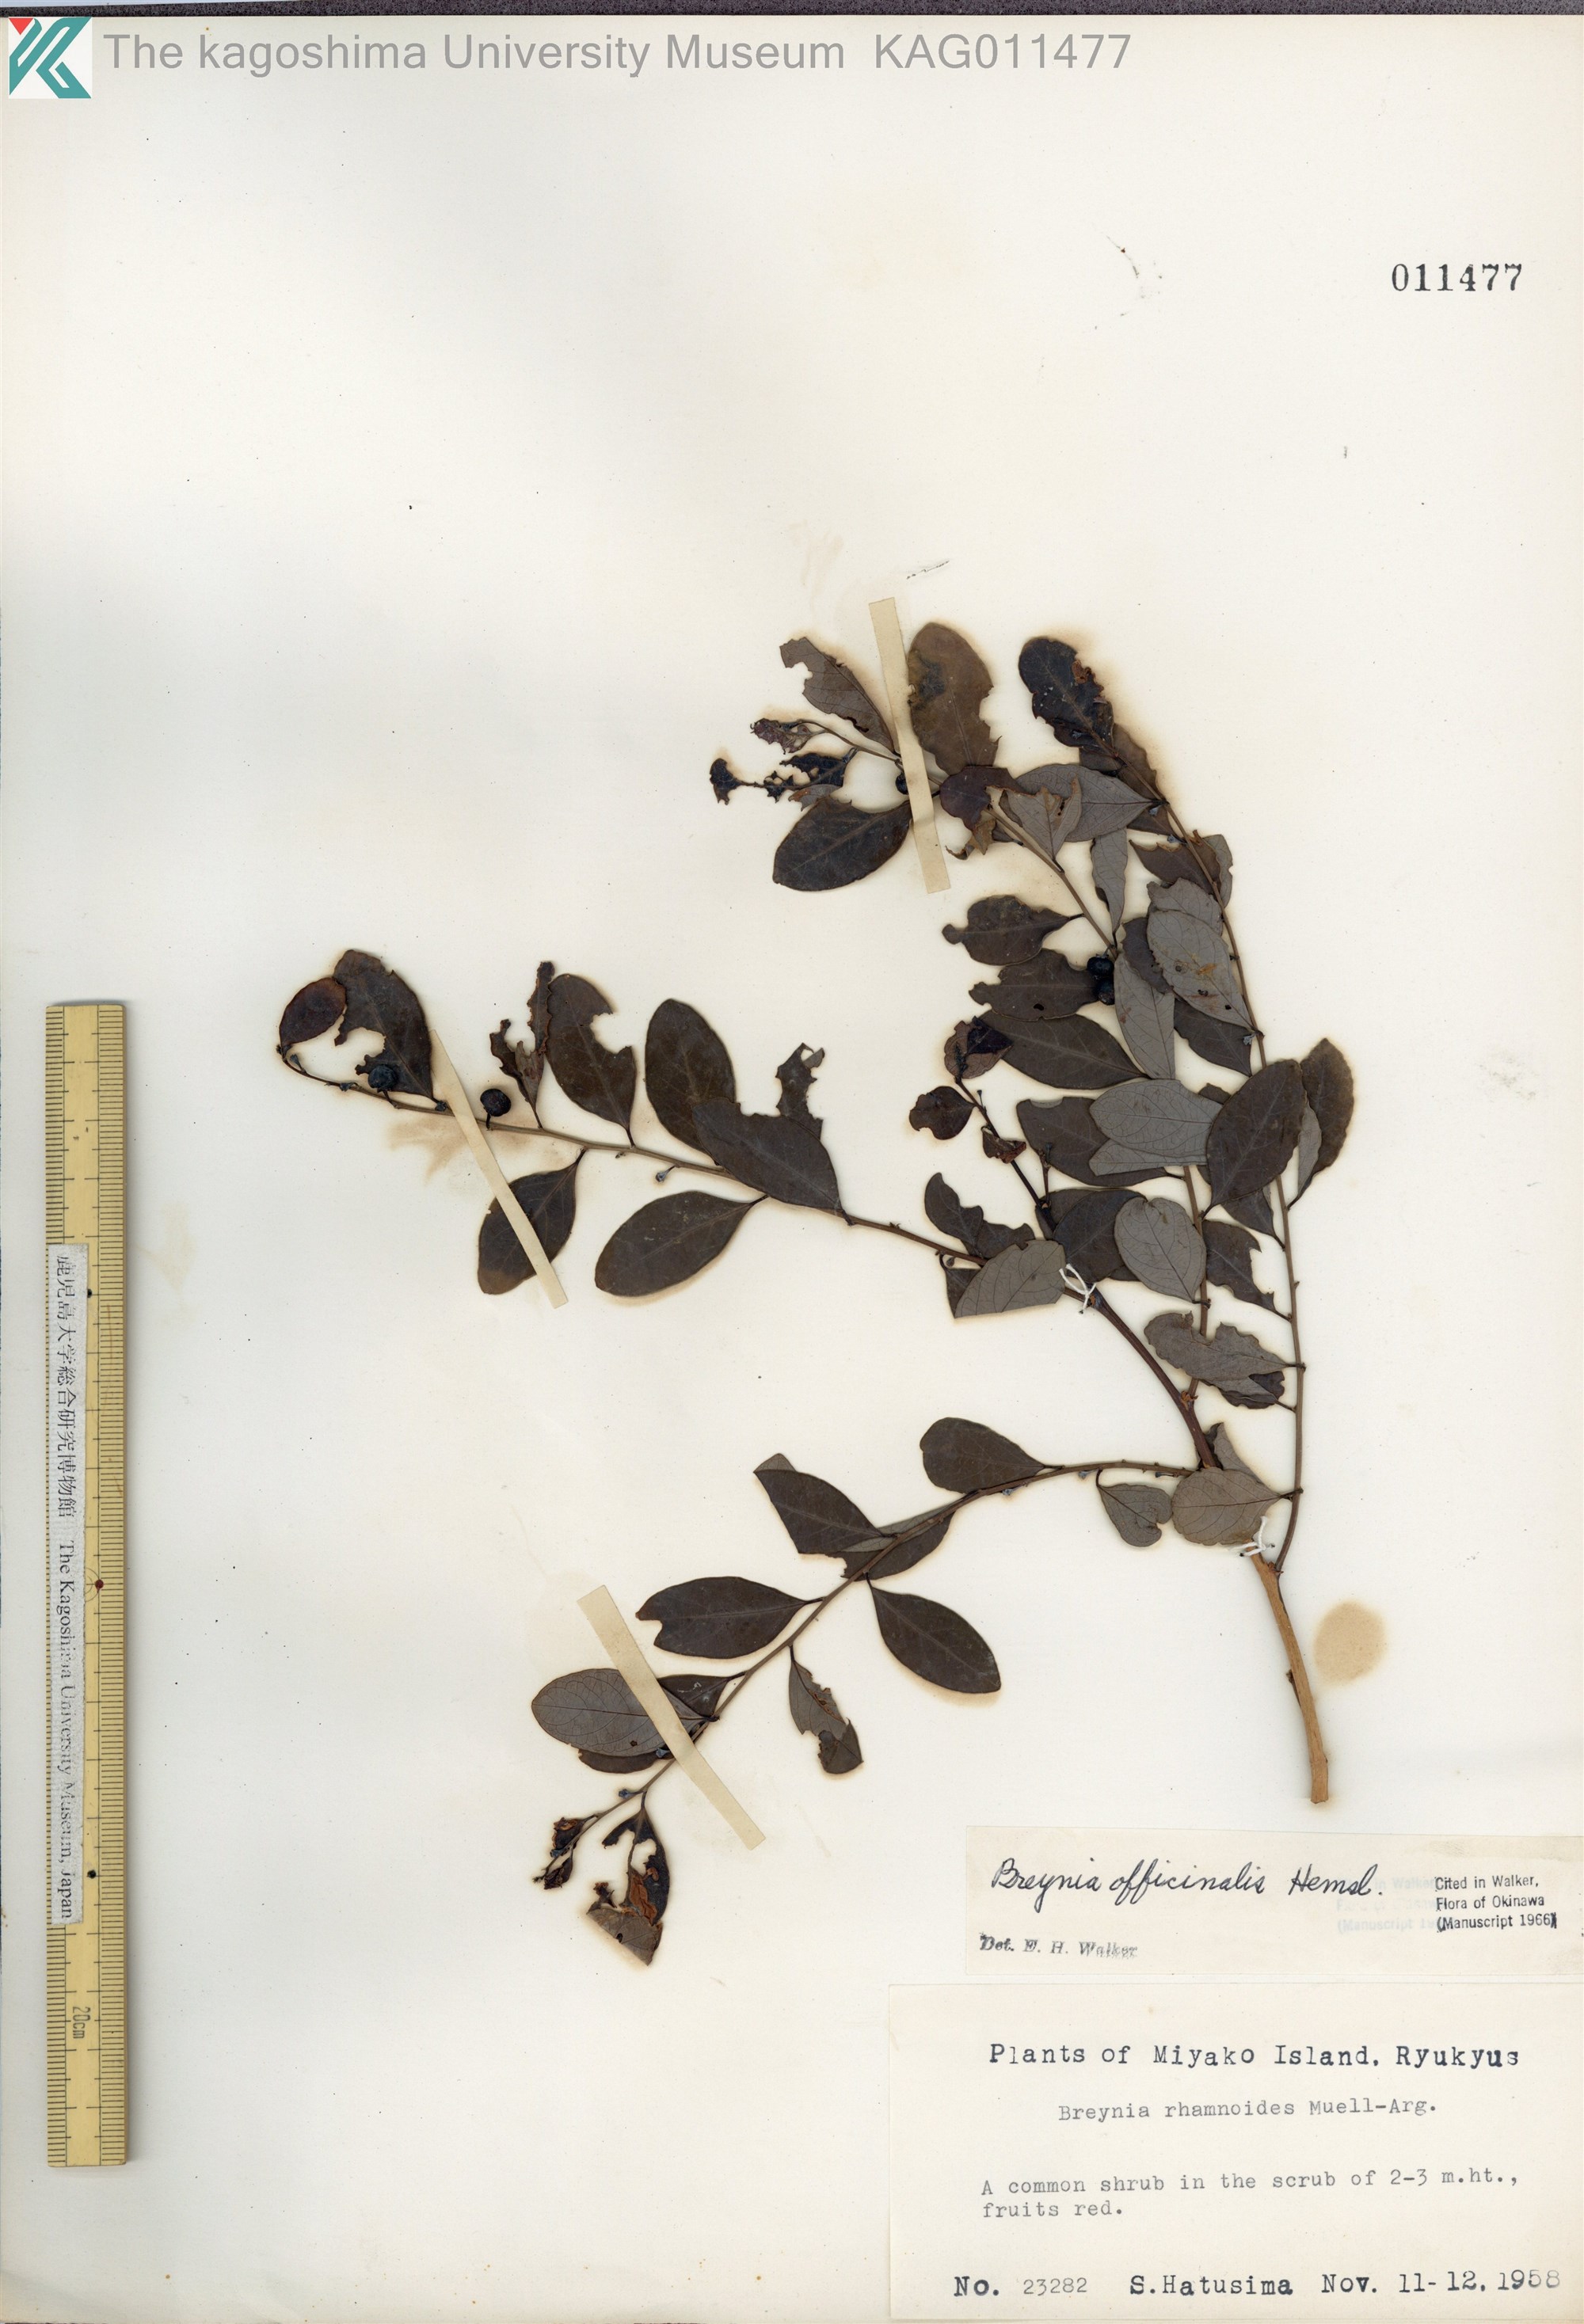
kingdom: Plantae
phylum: Tracheophyta
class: Magnoliopsida
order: Malpighiales
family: Phyllanthaceae
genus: Breynia
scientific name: Breynia vitis-idaea
